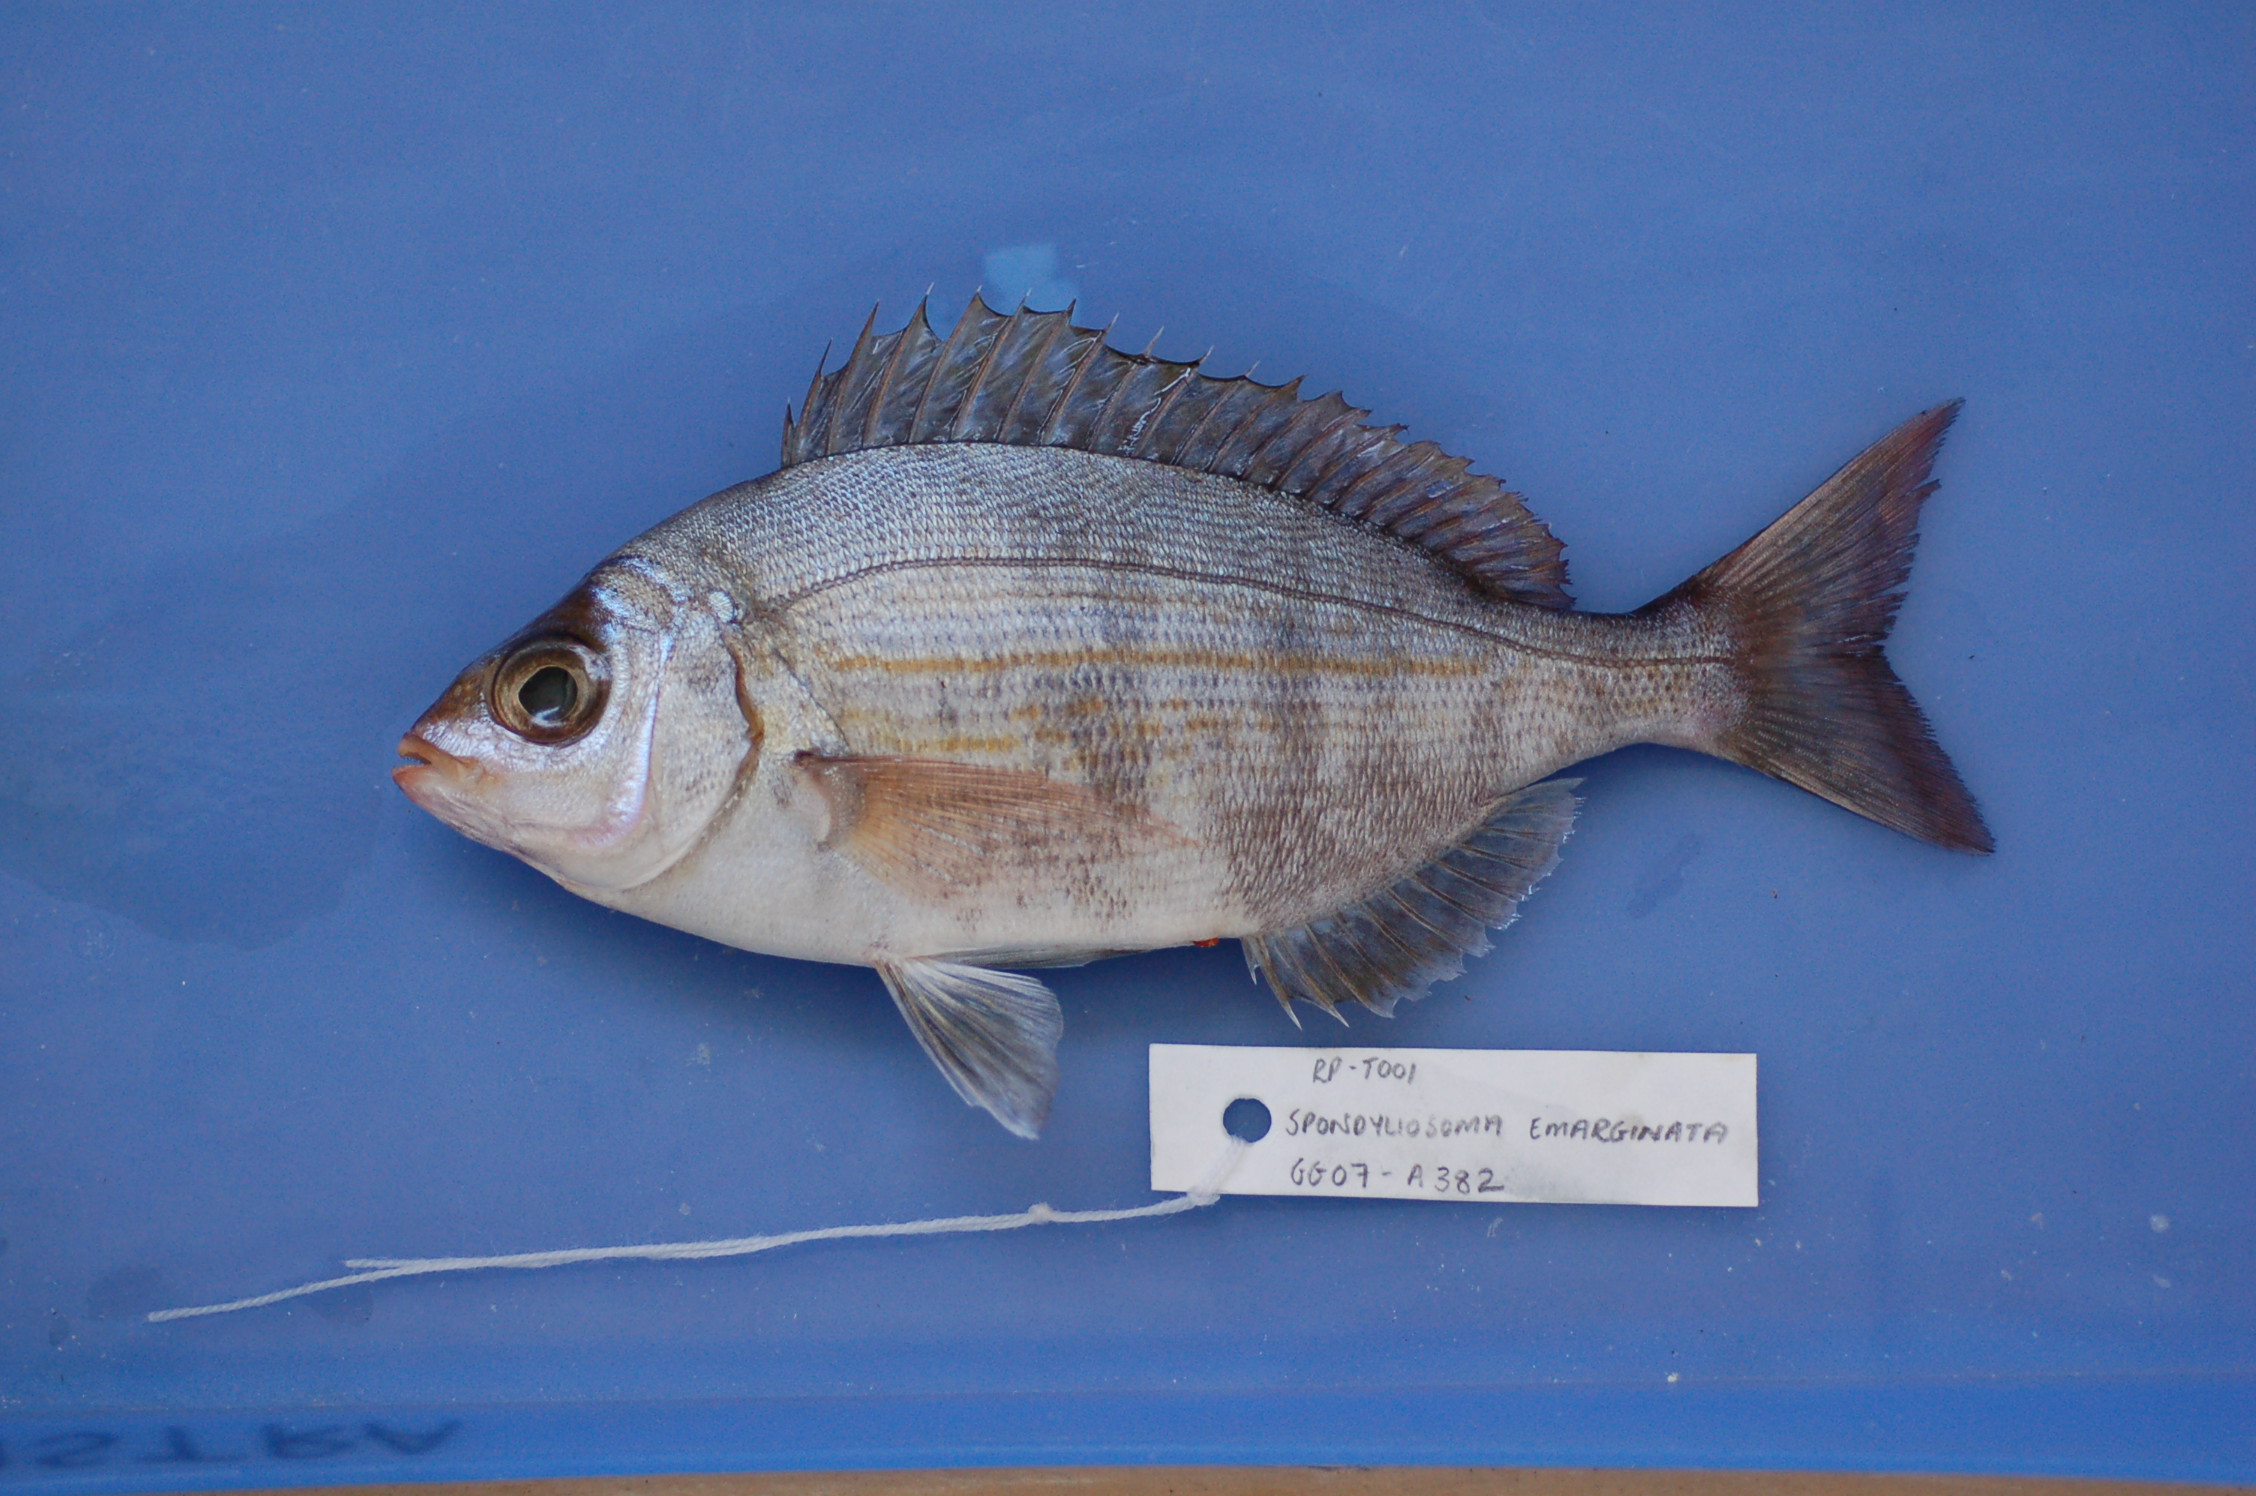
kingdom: Animalia
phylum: Chordata
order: Perciformes
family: Sparidae
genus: Spondyliosoma
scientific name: Spondyliosoma emarginatum
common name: Steentje seabream
